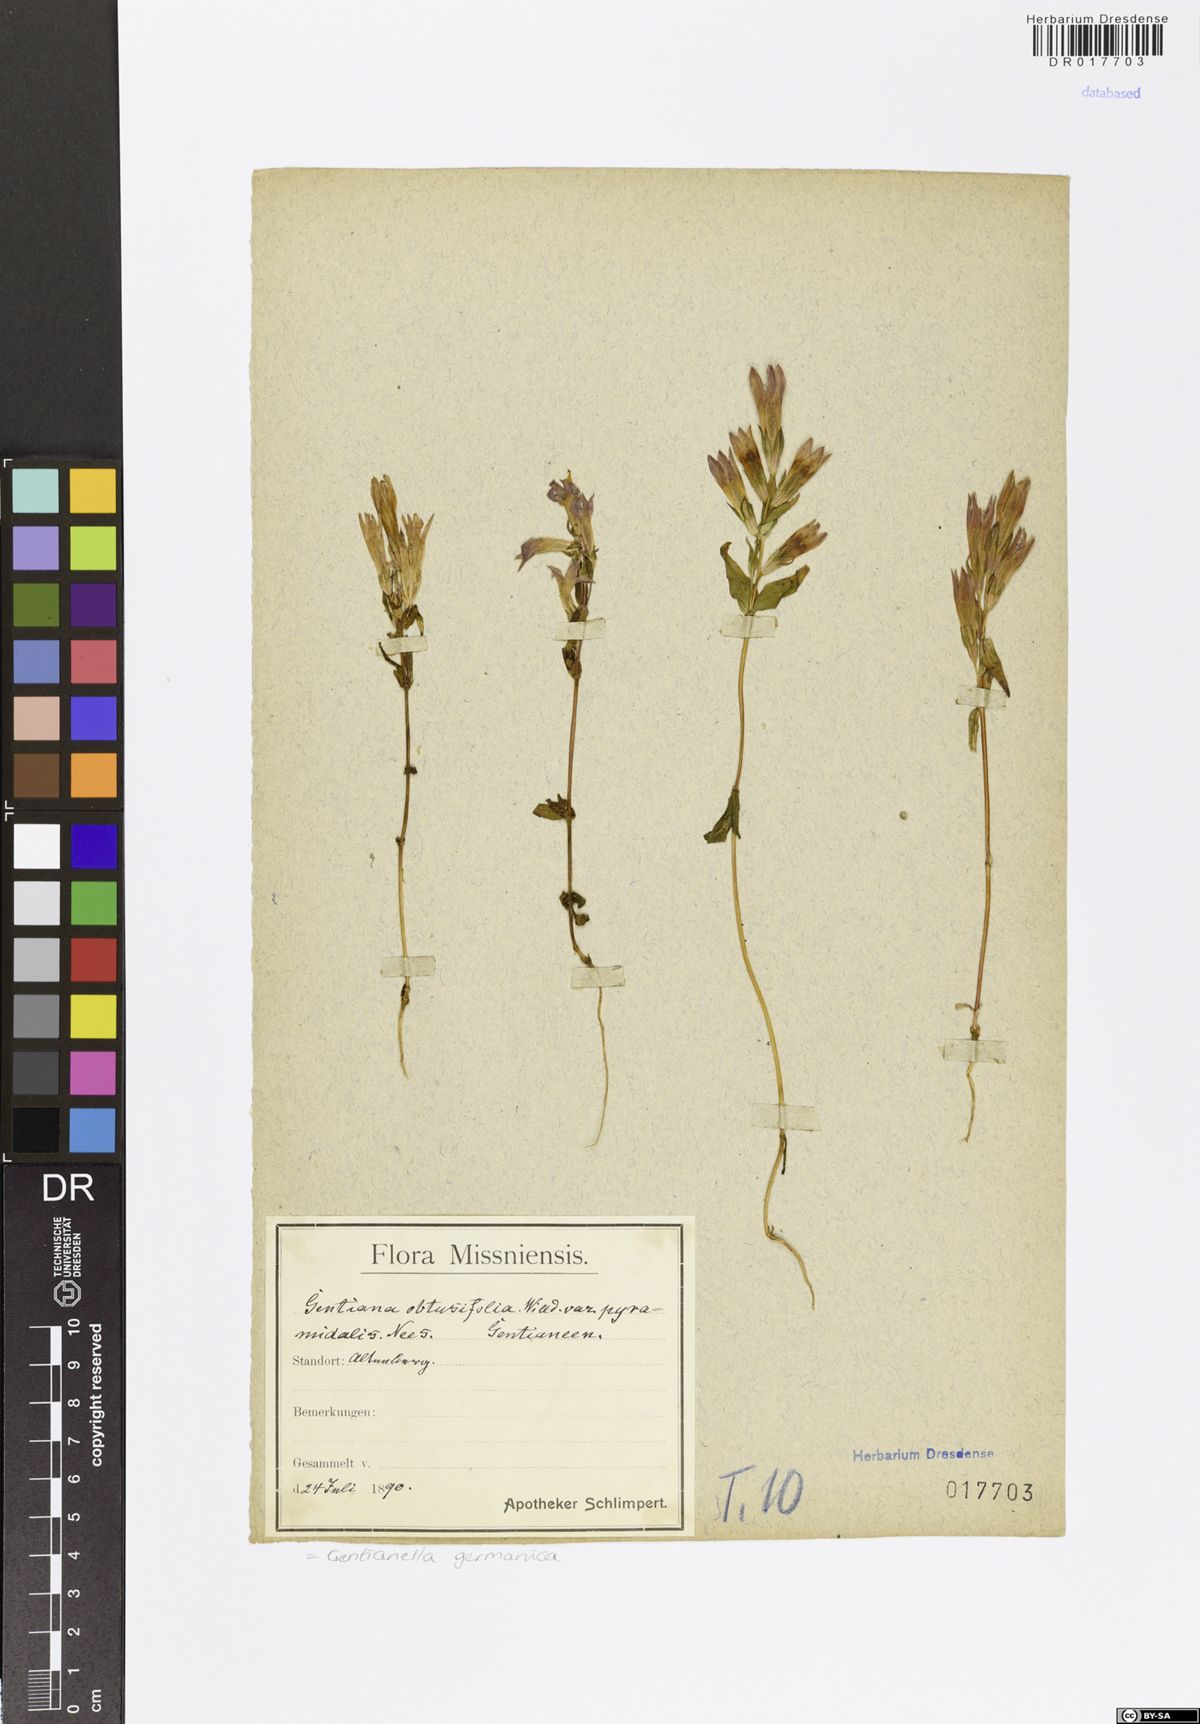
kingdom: Plantae
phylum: Tracheophyta
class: Magnoliopsida
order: Gentianales
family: Gentianaceae
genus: Gentianella
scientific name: Gentianella praecox
